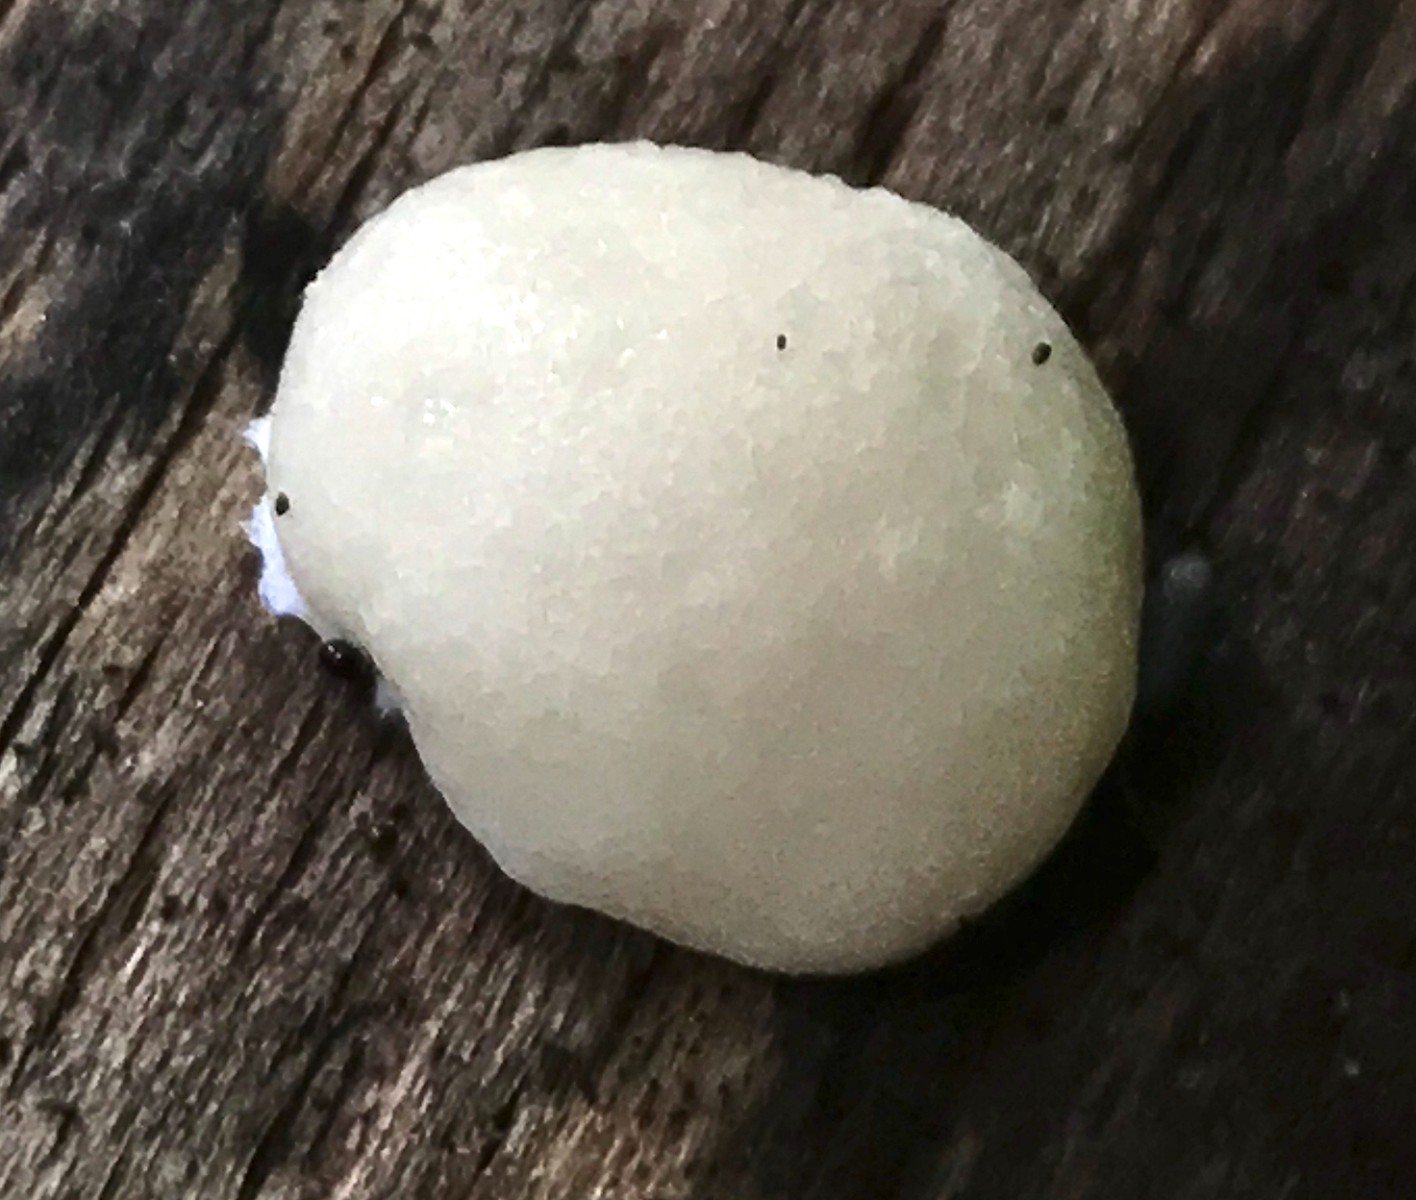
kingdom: Protozoa
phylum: Mycetozoa
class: Myxomycetes
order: Cribrariales
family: Tubiferaceae
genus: Reticularia
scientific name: Reticularia lycoperdon
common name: skinnende støvpude
